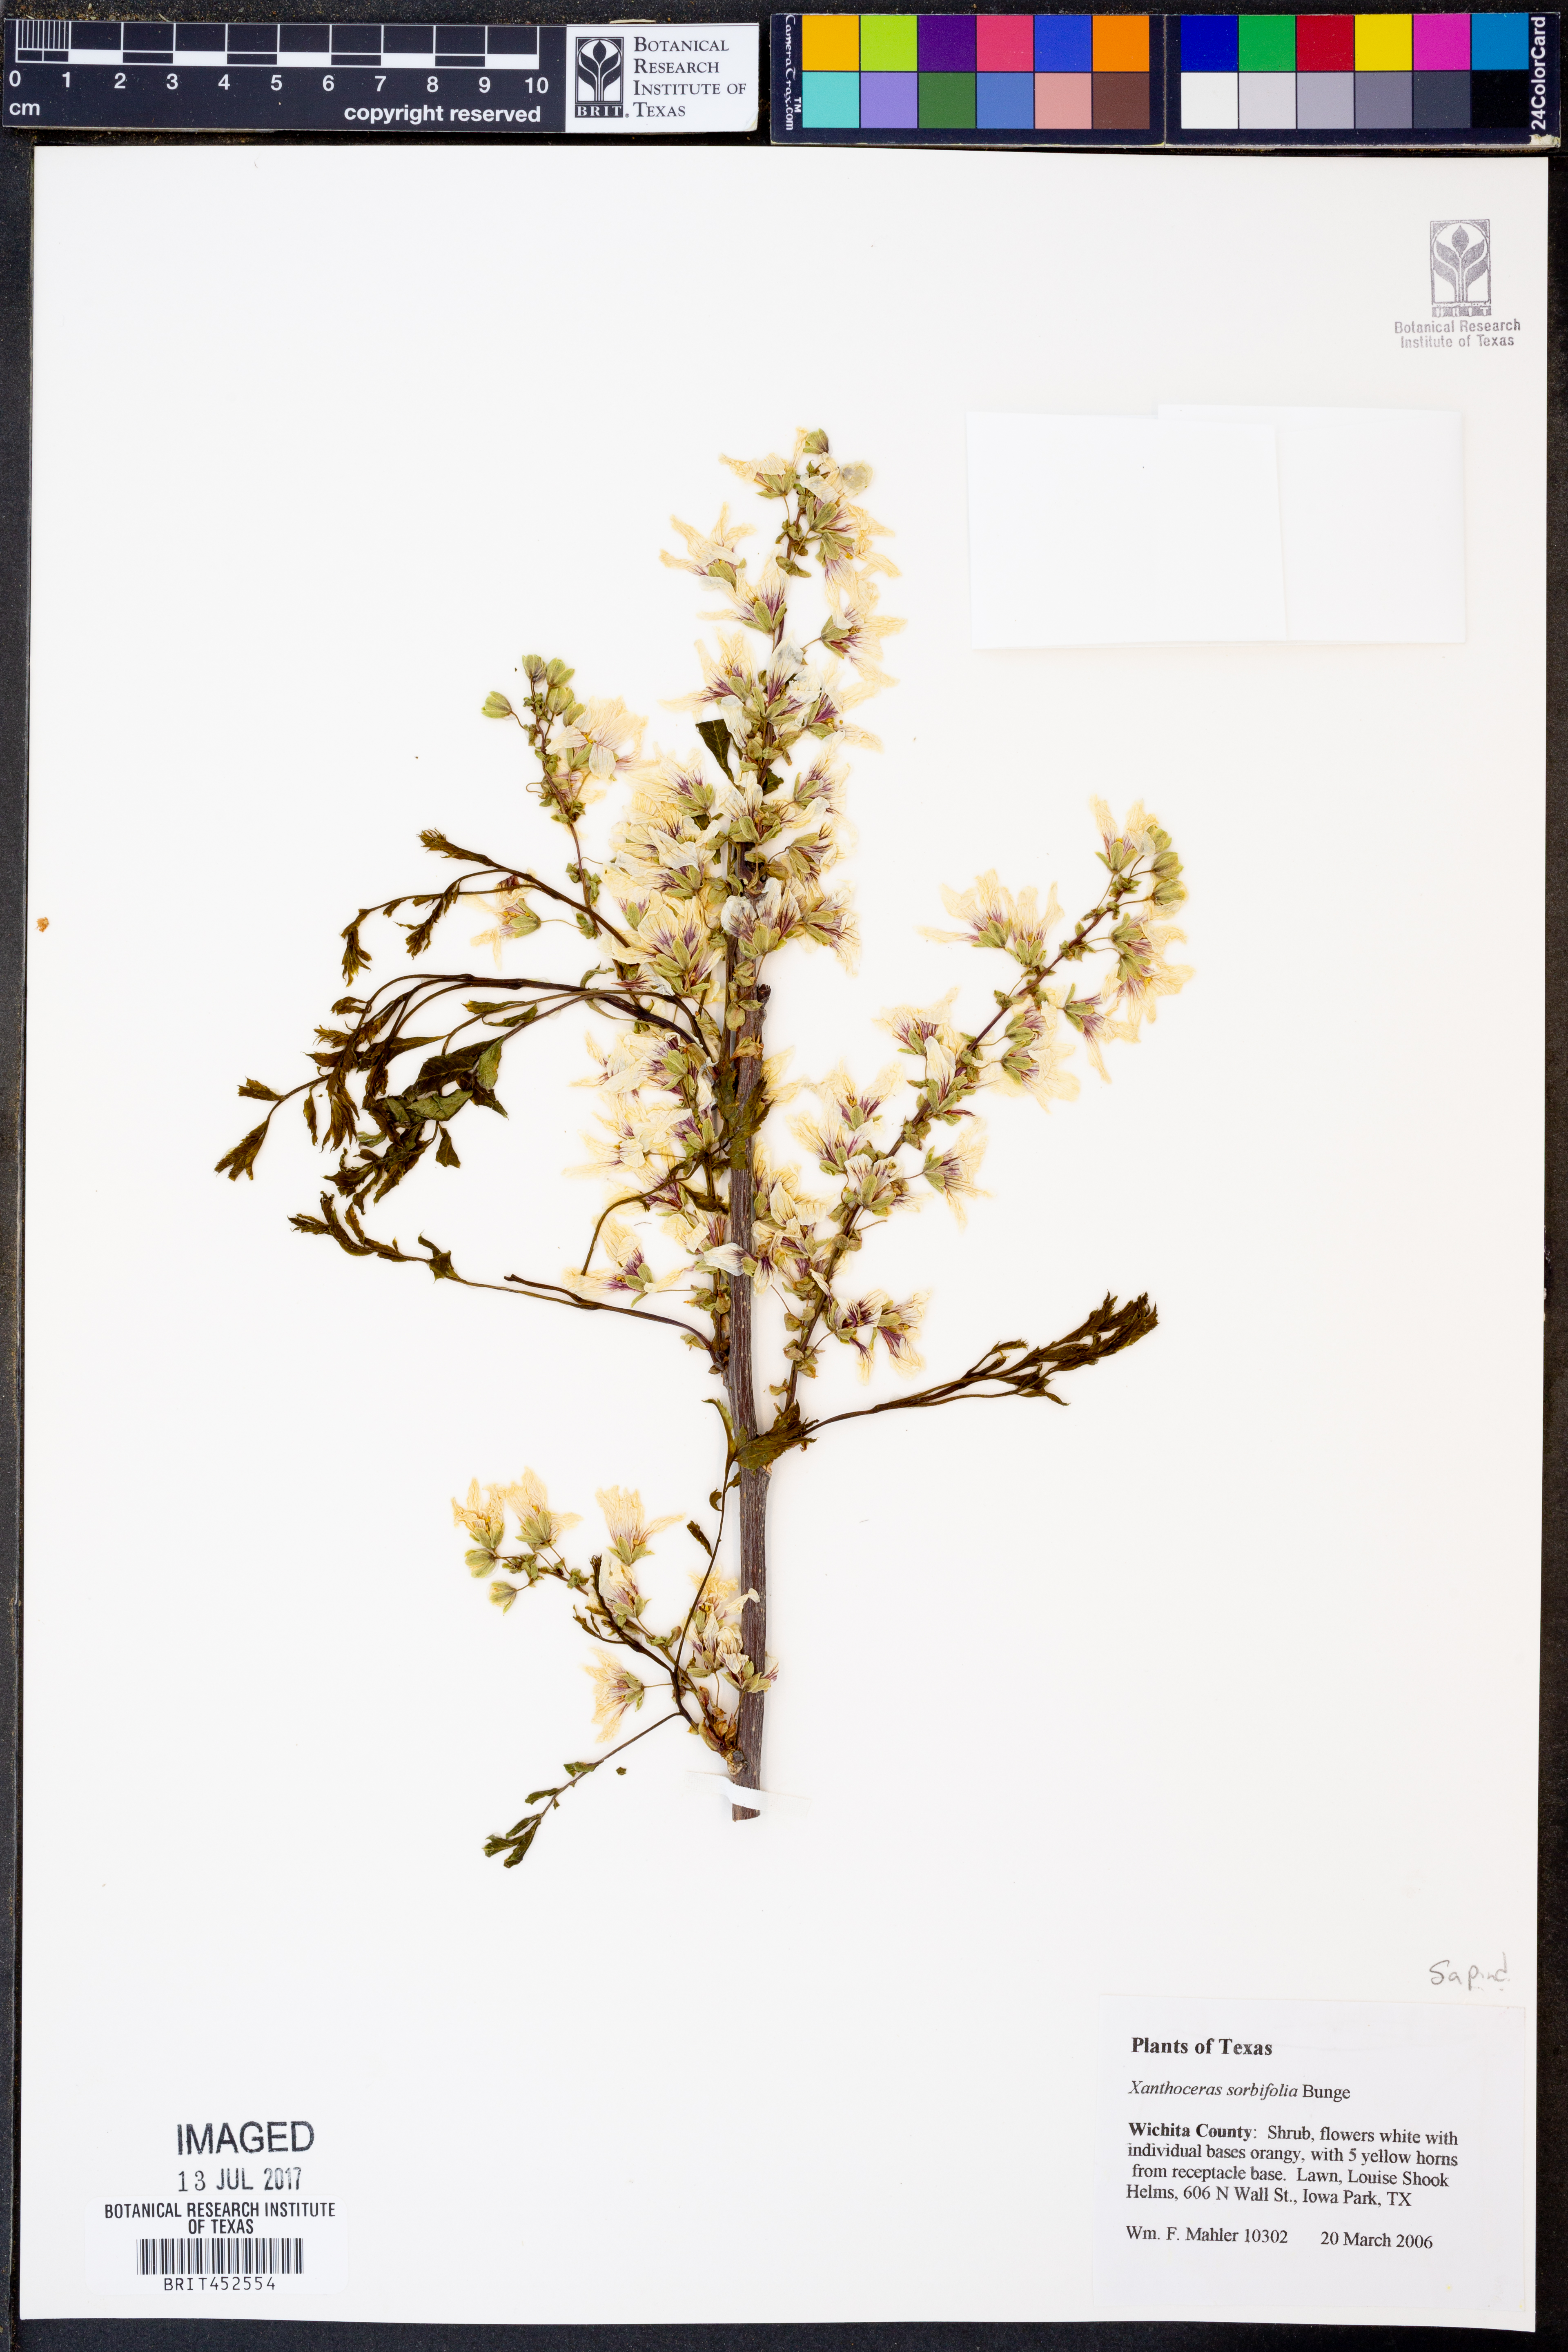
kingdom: Plantae
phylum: Tracheophyta
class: Magnoliopsida
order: Sapindales
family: Sapindaceae
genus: Xanthoceras
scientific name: Xanthoceras sorbifolia
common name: Yellow-horn
